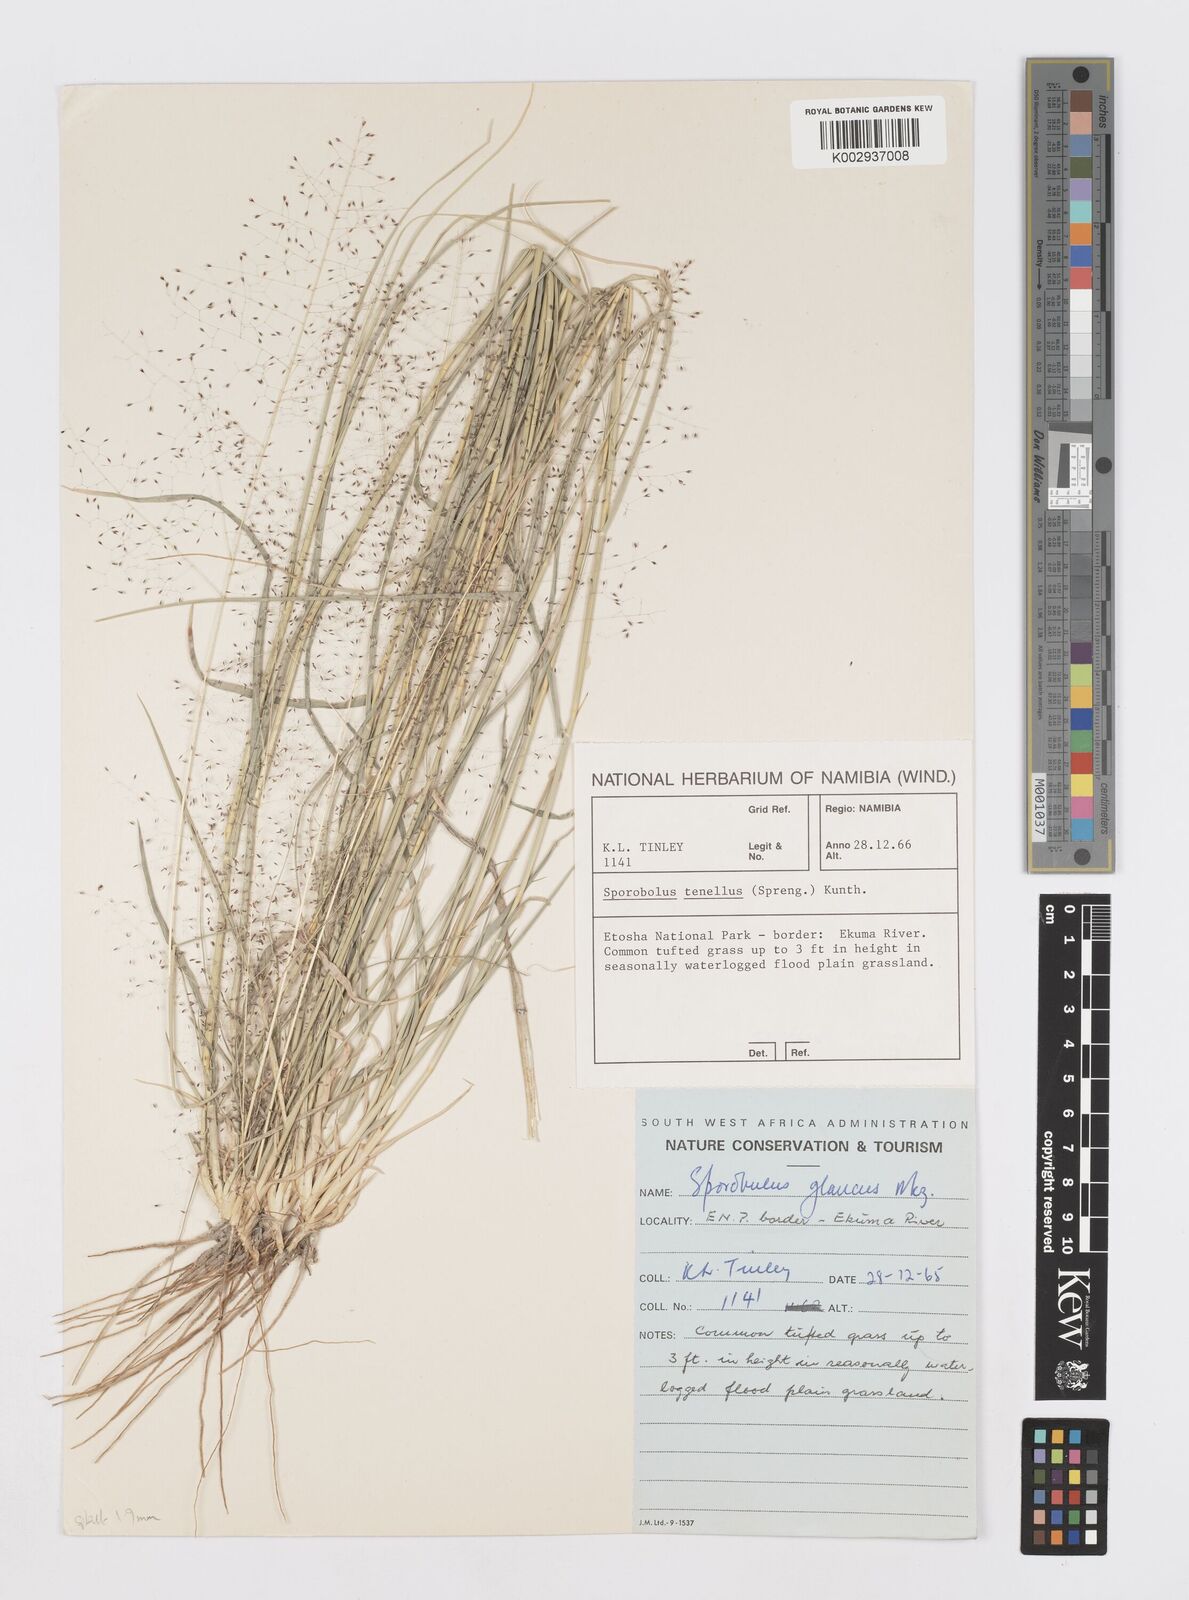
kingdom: Plantae
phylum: Tracheophyta
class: Liliopsida
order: Poales
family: Poaceae
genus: Sporobolus
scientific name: Sporobolus salsus
